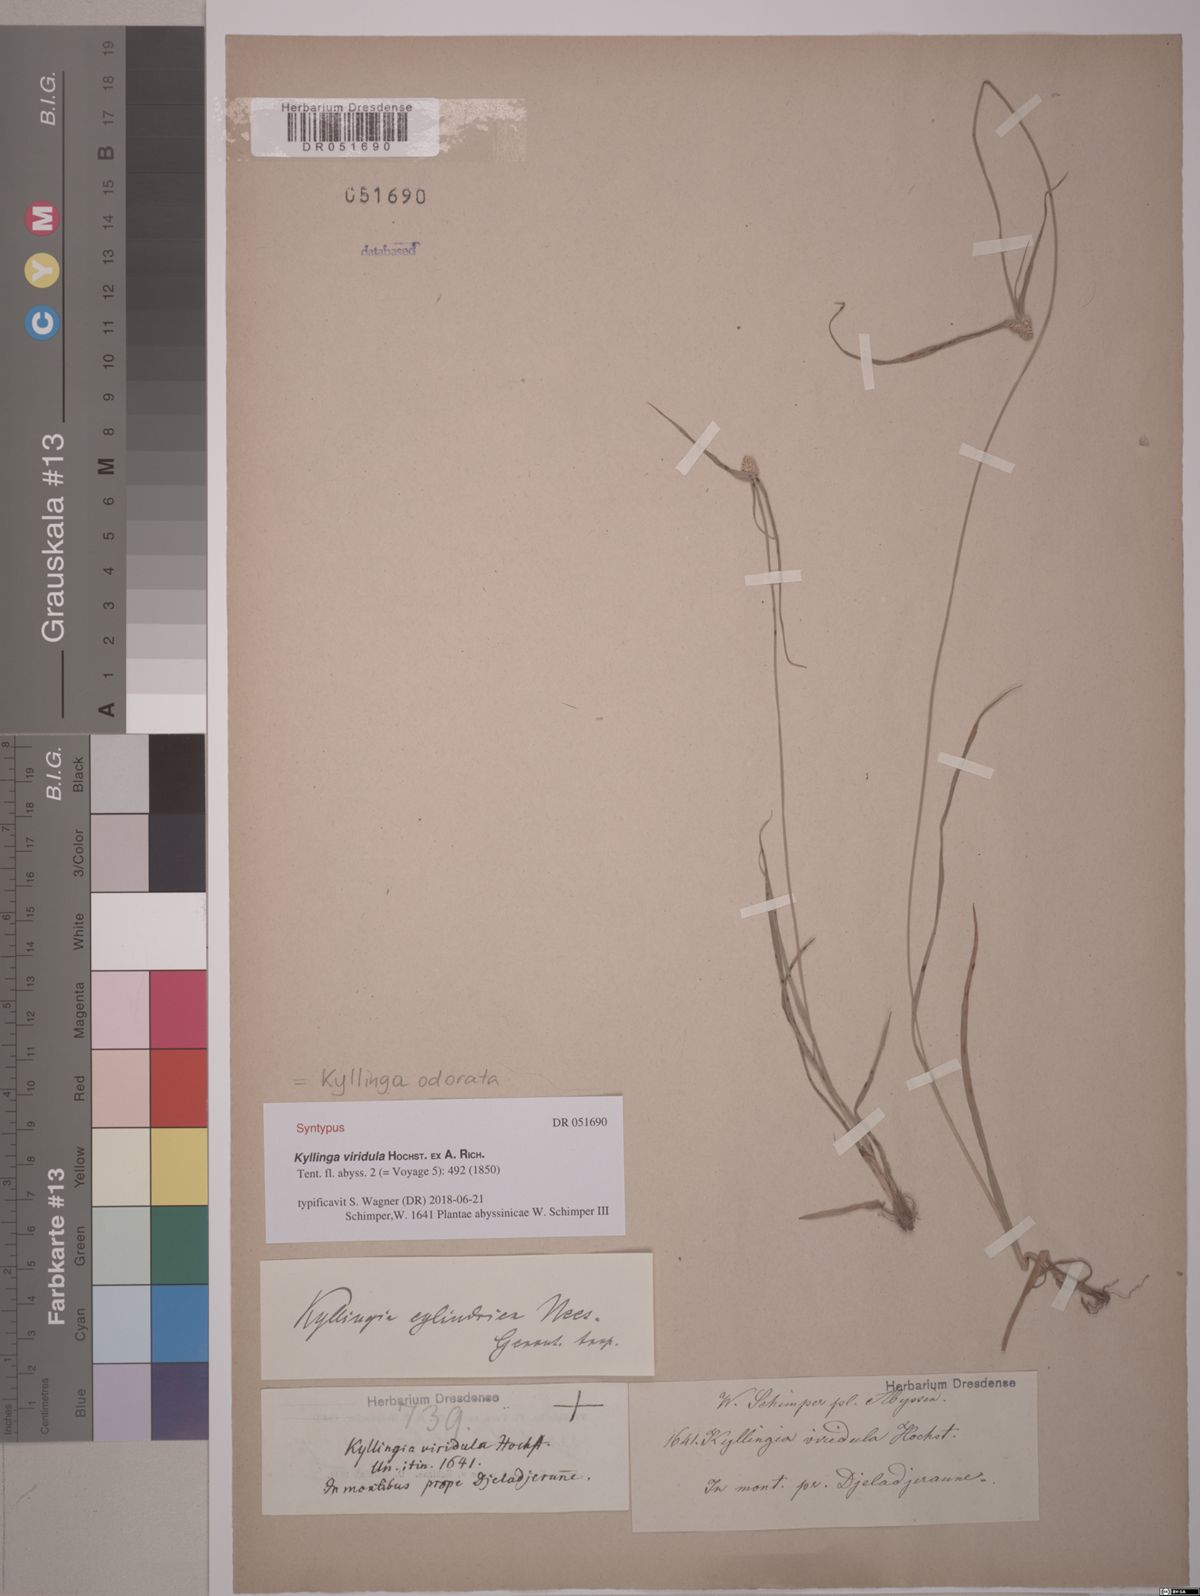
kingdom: Plantae
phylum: Tracheophyta
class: Liliopsida
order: Poales
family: Cyperaceae
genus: Cyperus
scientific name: Cyperus sesquiflorus
